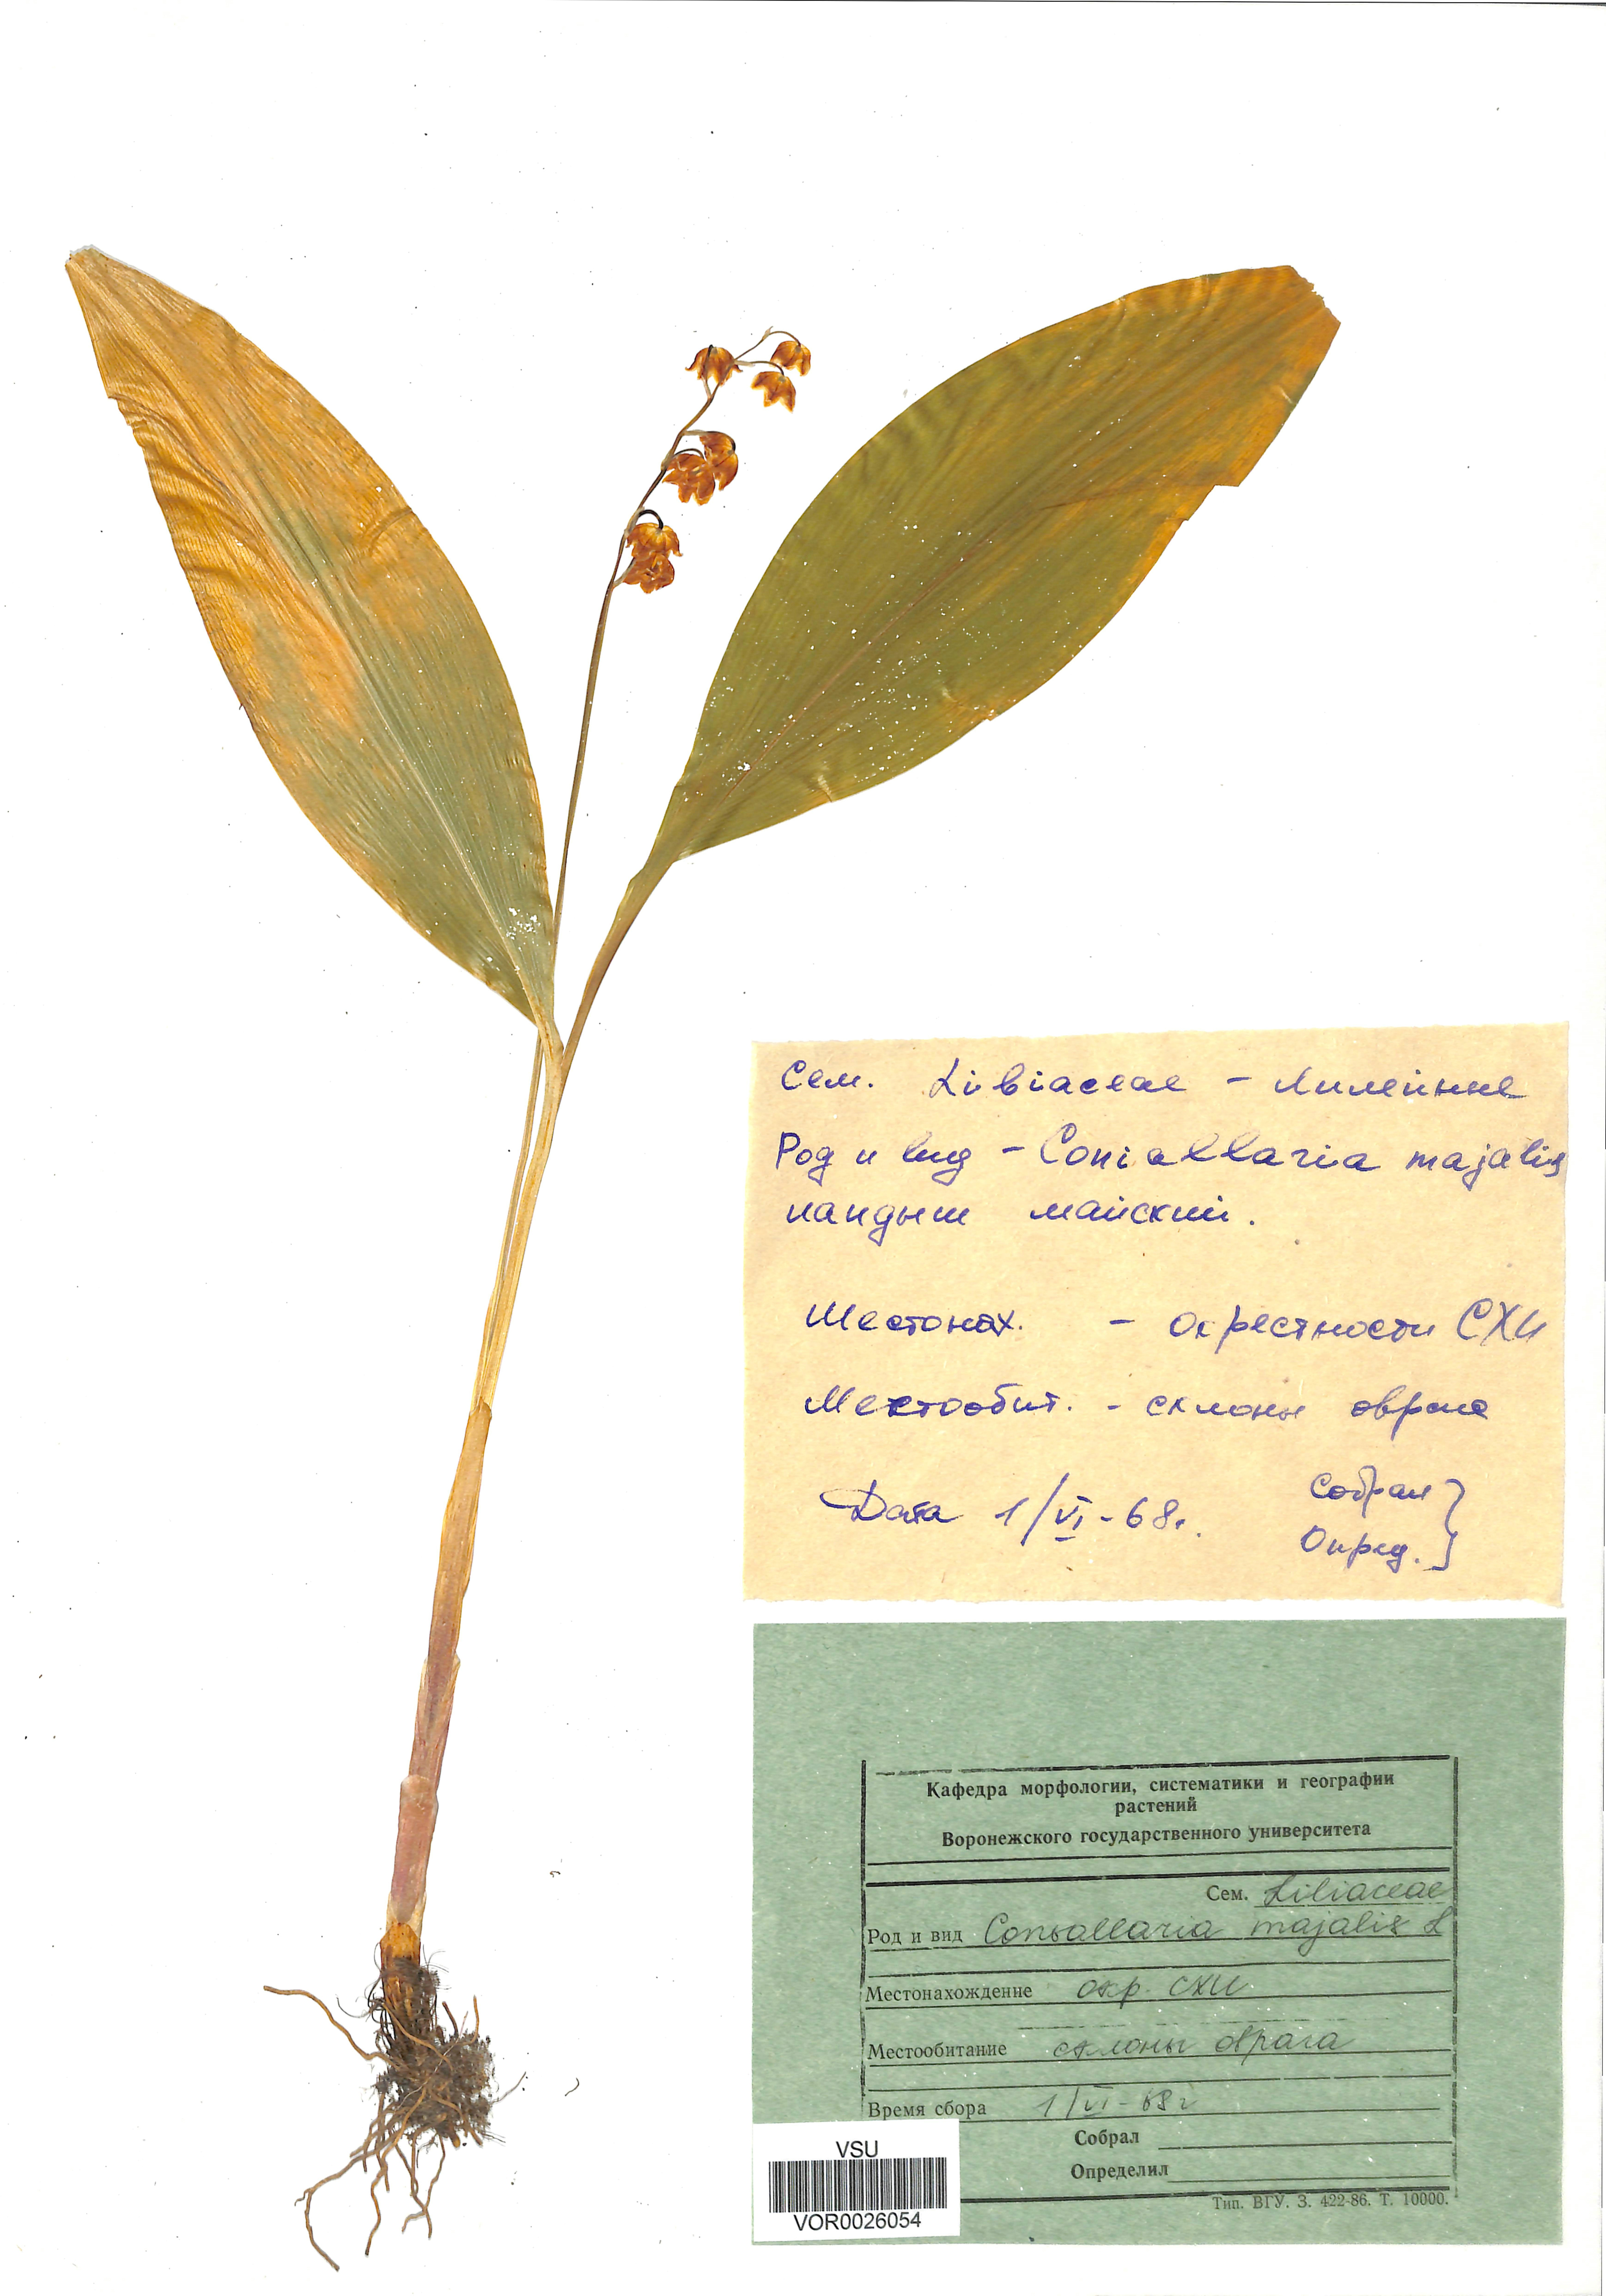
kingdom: Plantae
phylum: Tracheophyta
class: Liliopsida
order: Asparagales
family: Asparagaceae
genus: Convallaria
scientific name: Convallaria majalis
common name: Lily-of-the-valley
